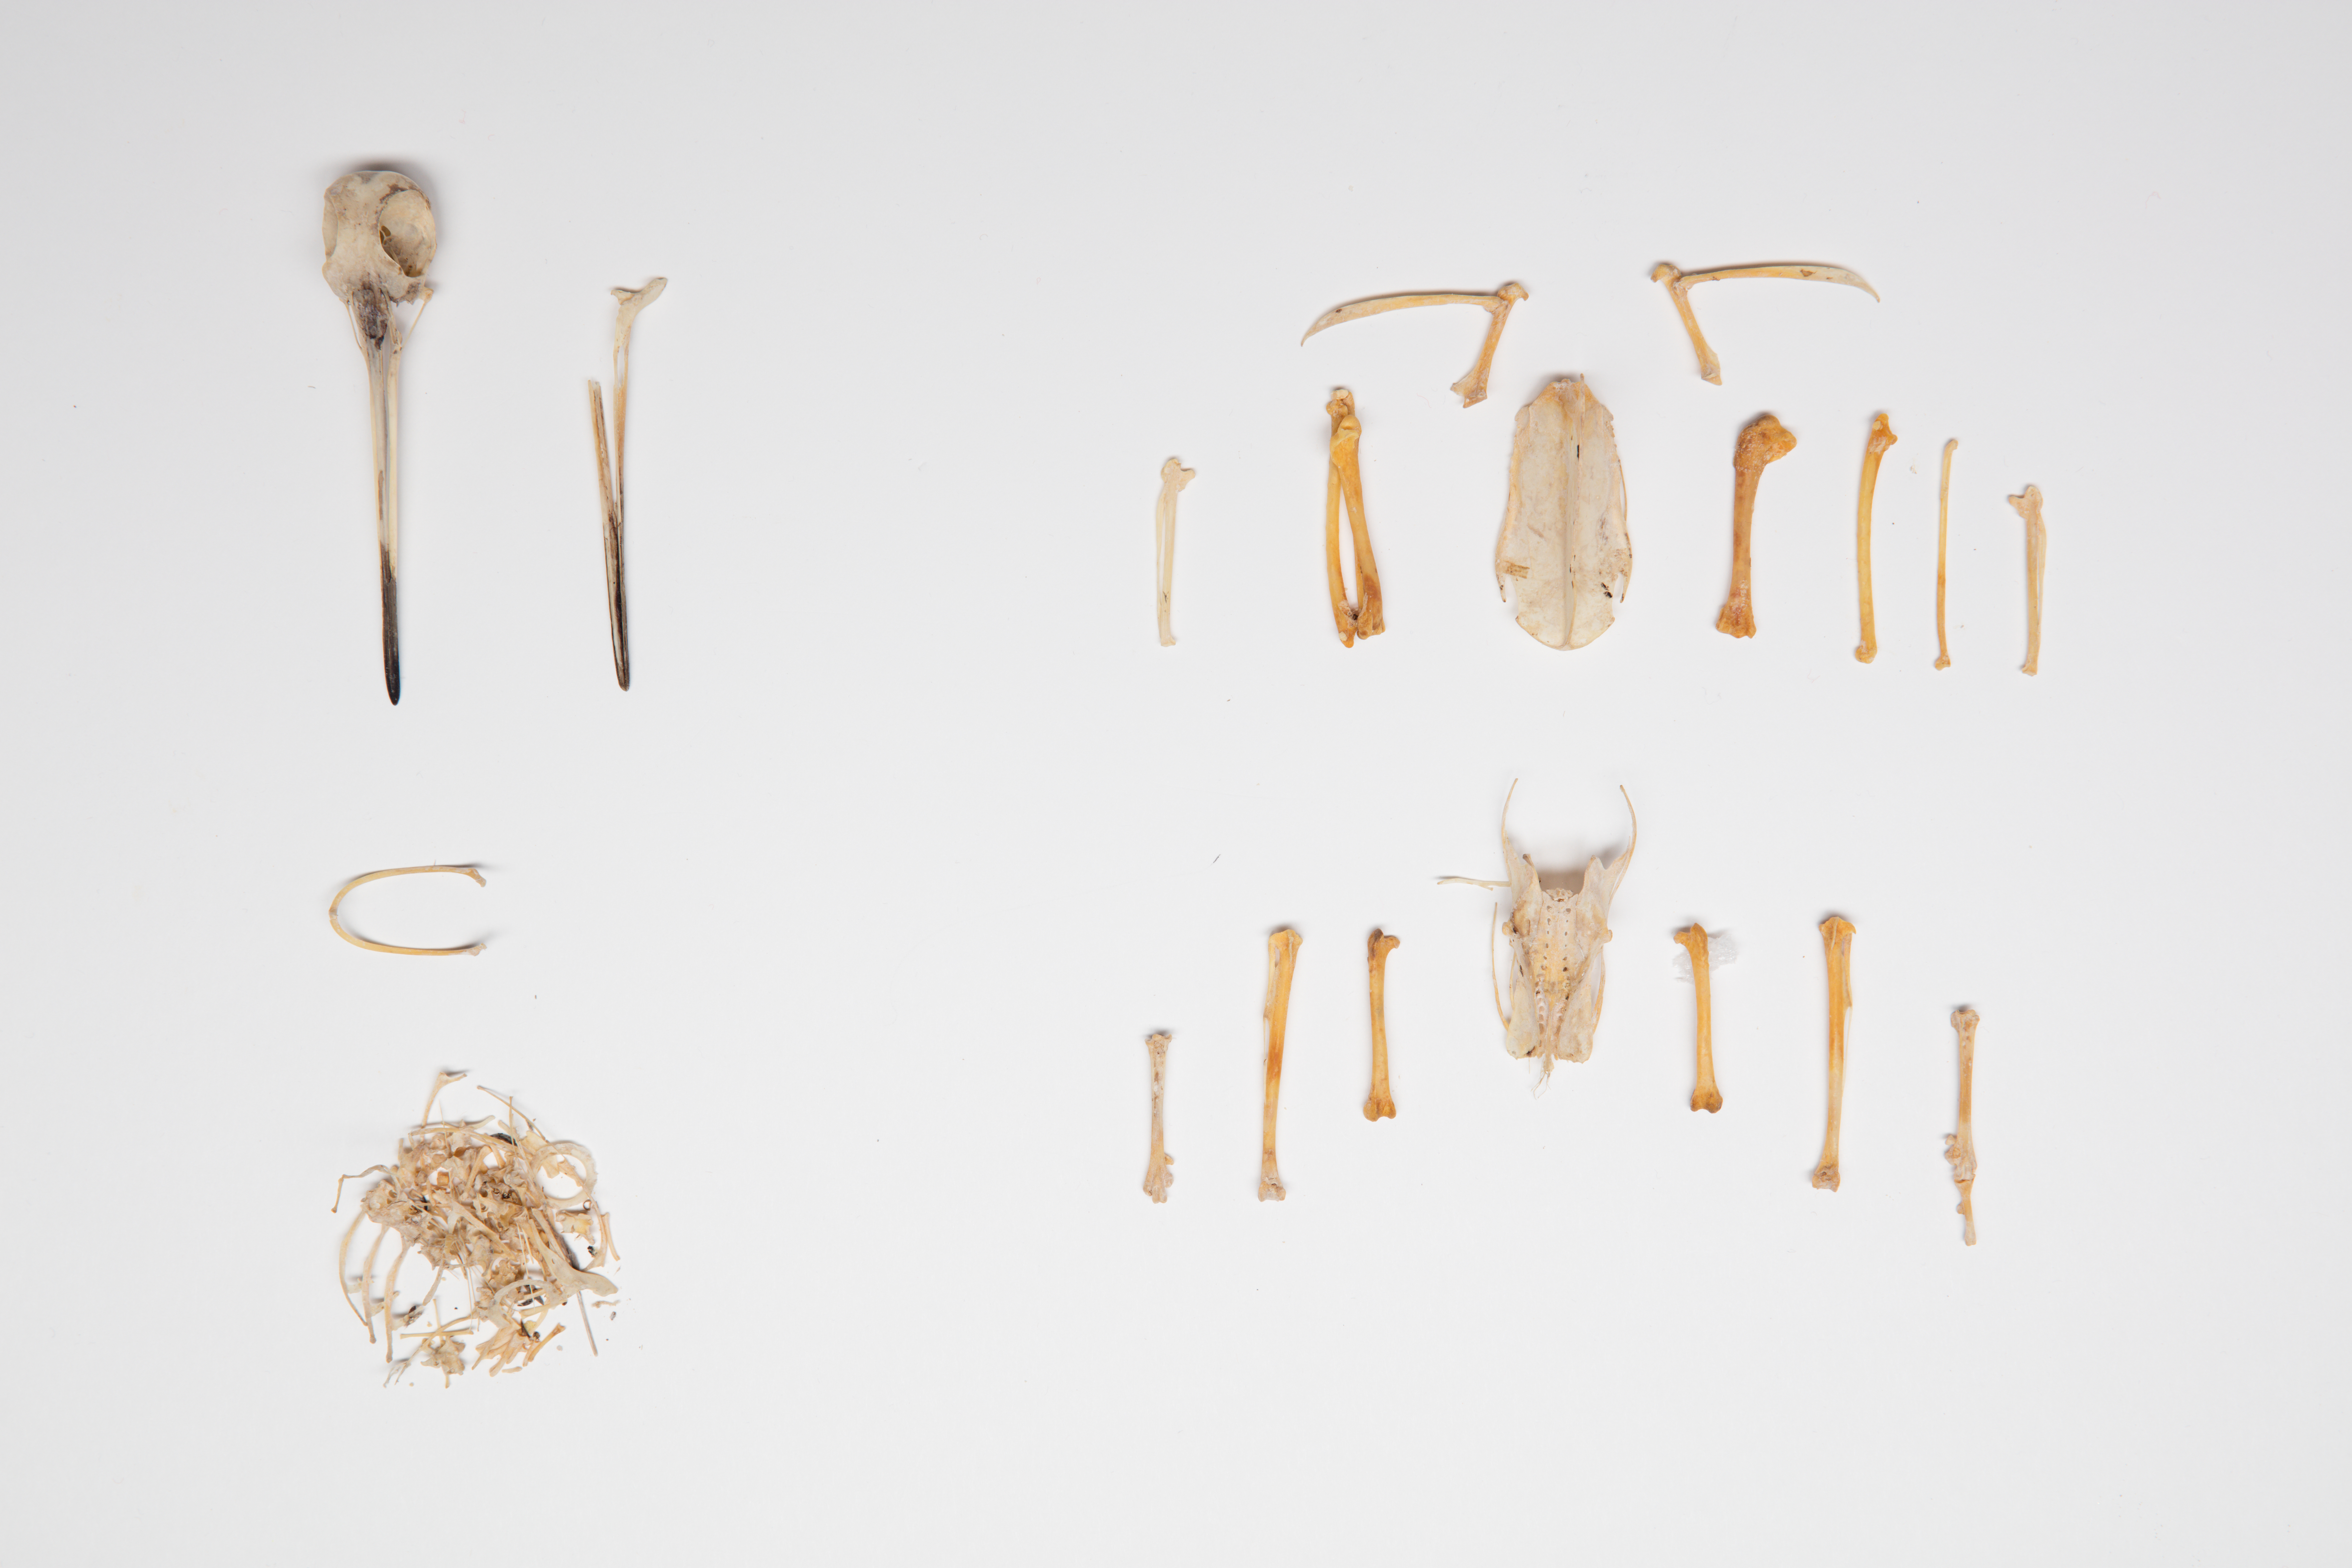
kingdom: Animalia
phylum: Chordata
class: Aves
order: Charadriiformes
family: Scolopacidae
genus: Scolopax
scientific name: Scolopax minor
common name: American woodcock
